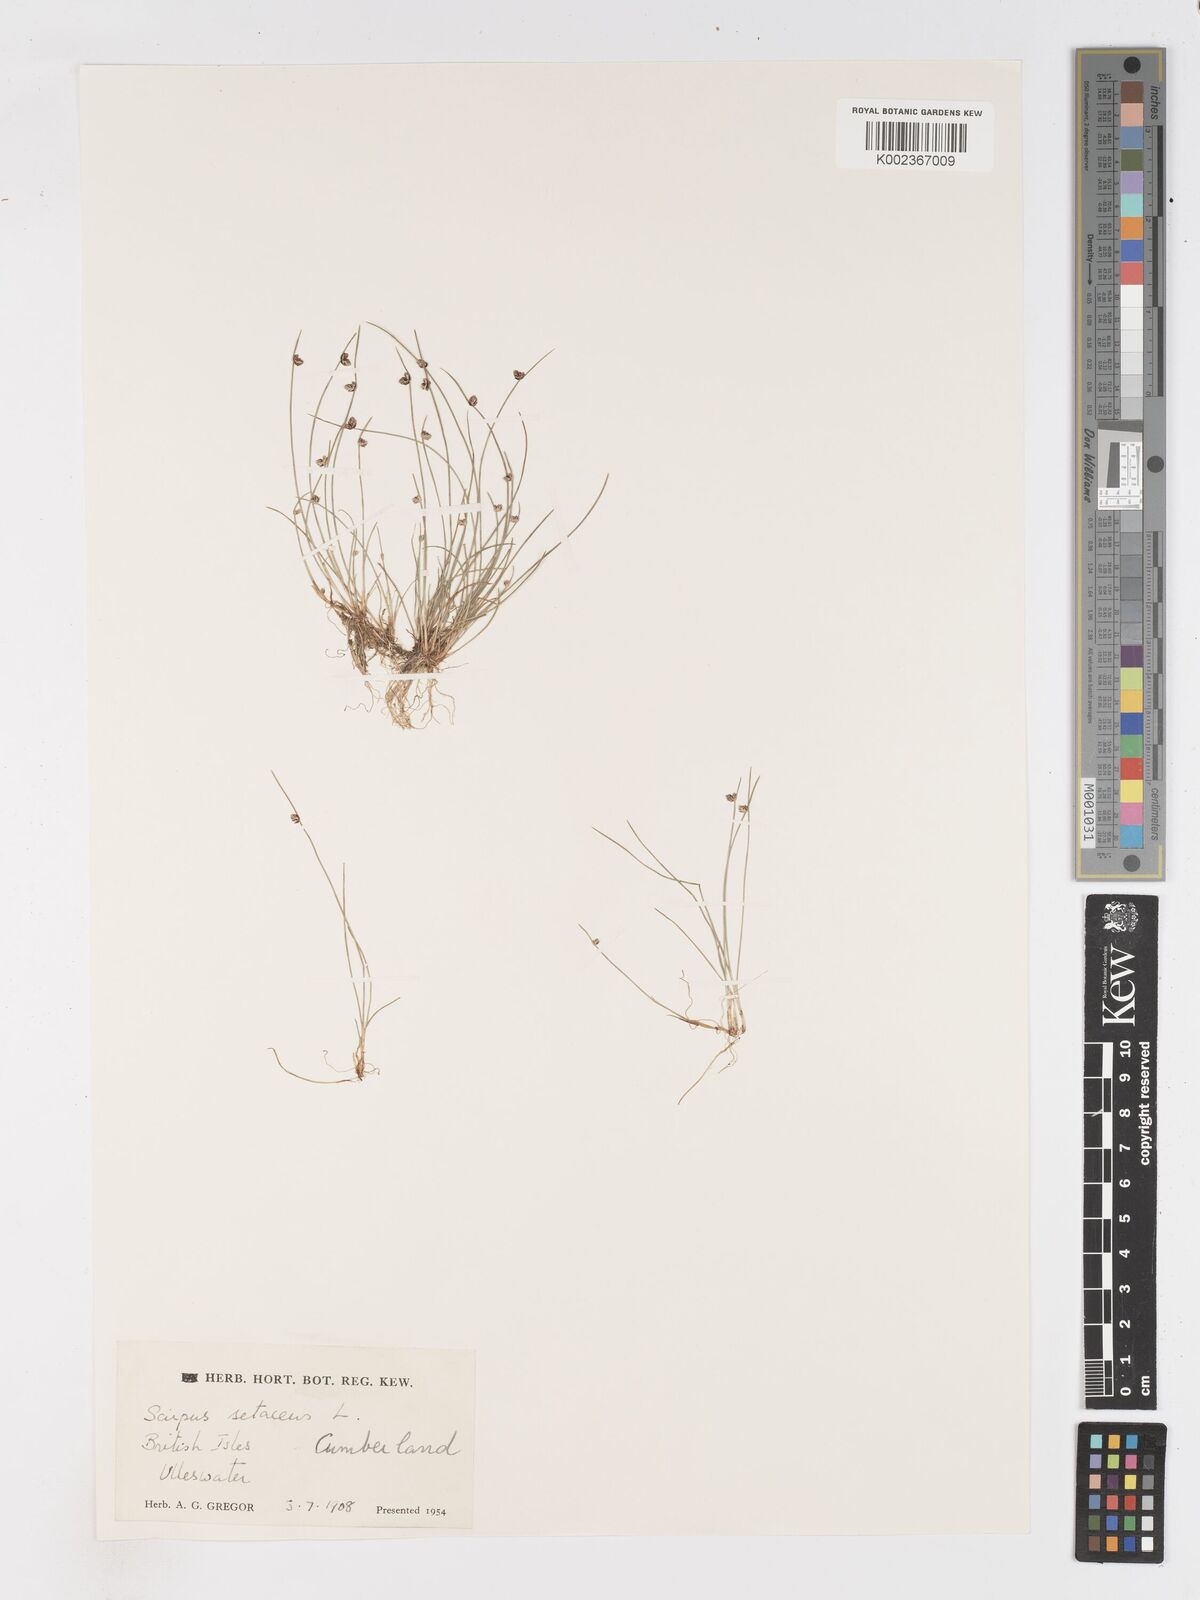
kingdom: Plantae
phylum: Tracheophyta
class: Liliopsida
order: Poales
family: Cyperaceae
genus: Isolepis
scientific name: Isolepis setacea
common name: Bristle club-rush
